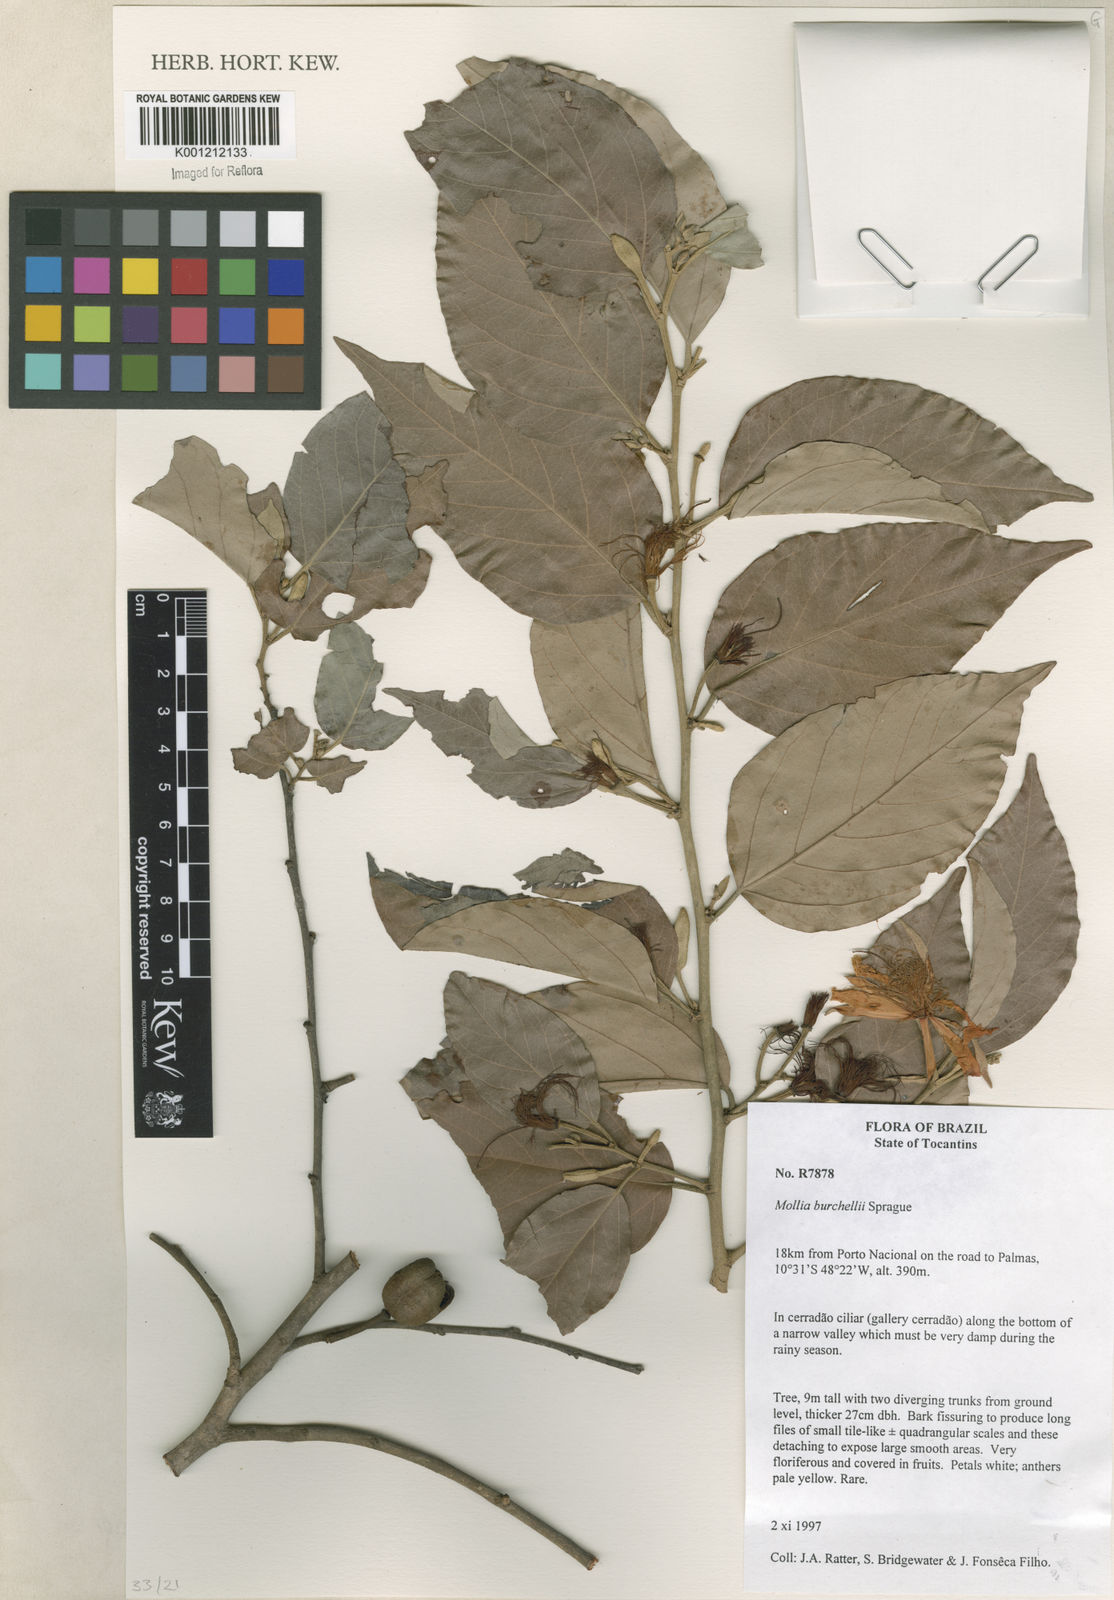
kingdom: Plantae
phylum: Tracheophyta
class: Magnoliopsida
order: Malvales
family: Malvaceae
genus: Mollia
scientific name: Mollia burchellii
